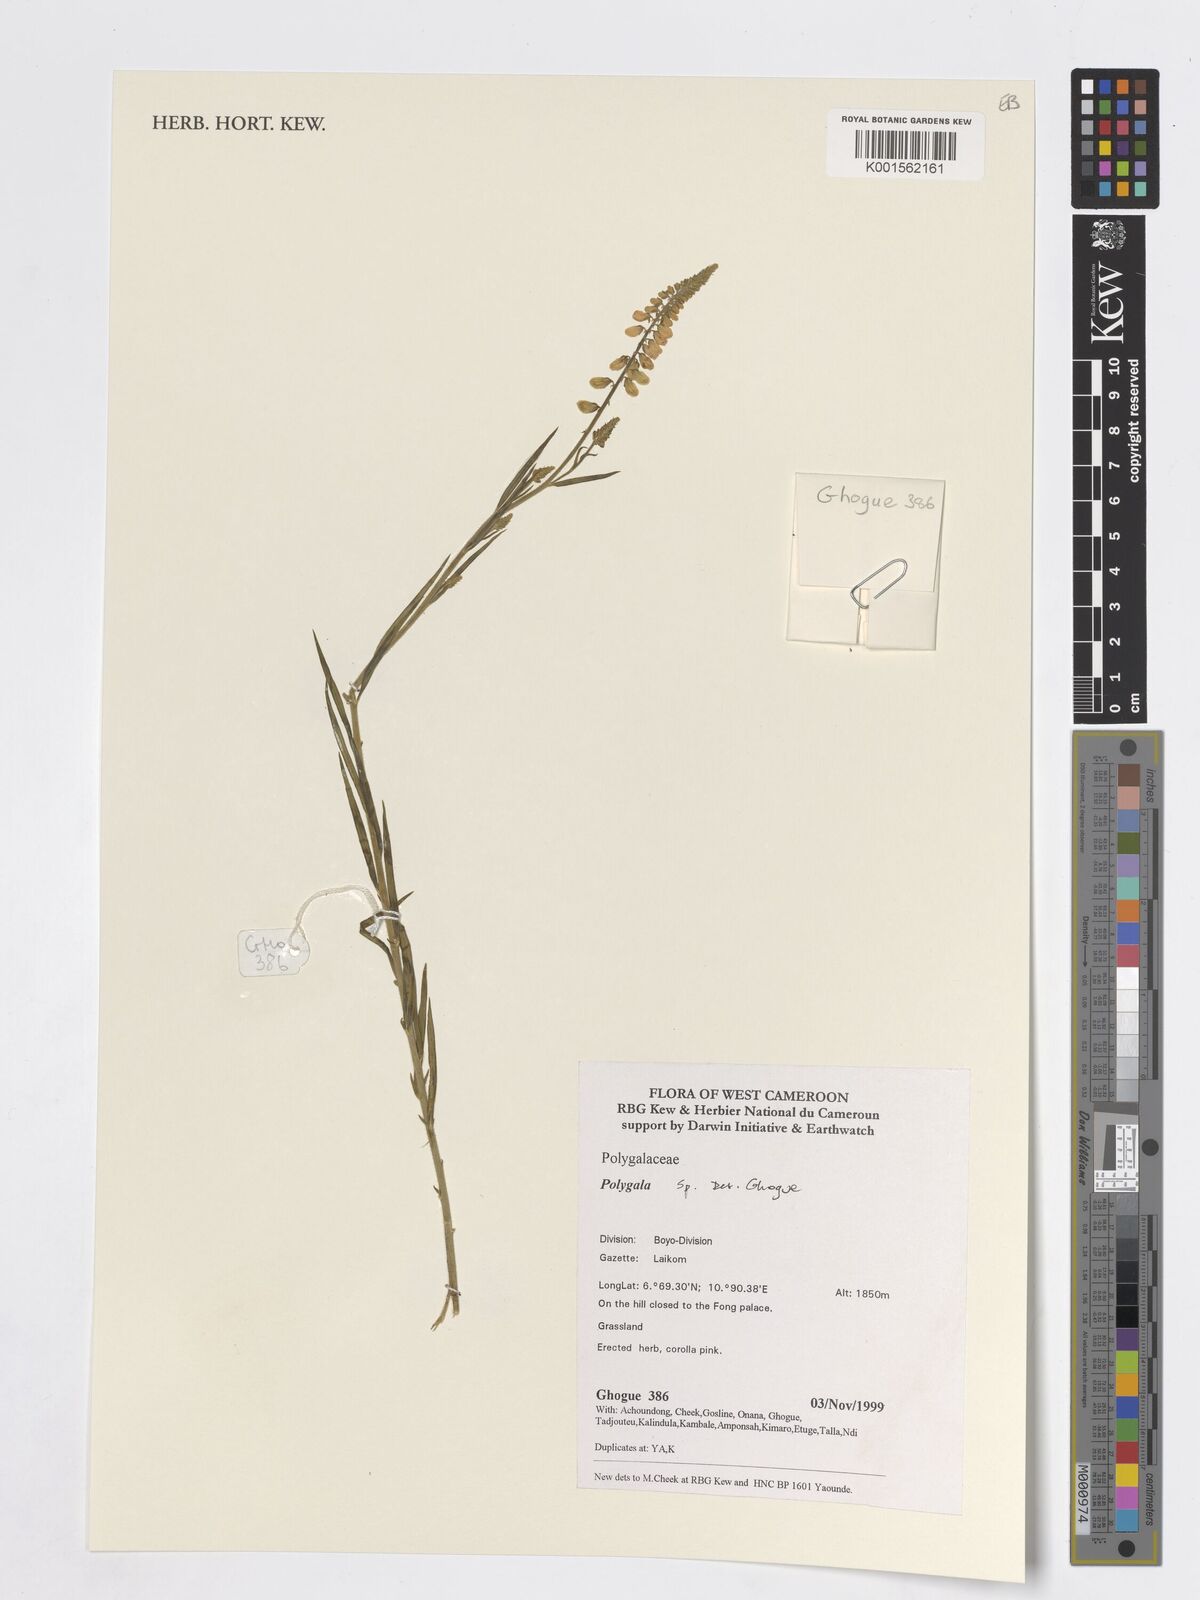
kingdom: Plantae
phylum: Tracheophyta
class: Magnoliopsida
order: Fabales
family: Polygalaceae
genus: Polygala
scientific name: Polygala
